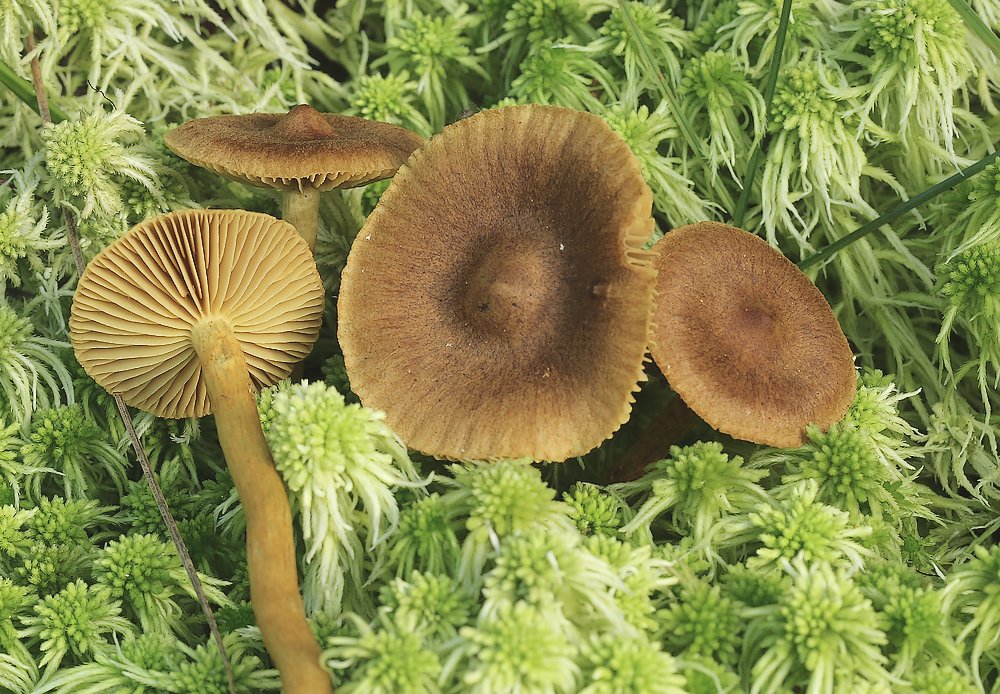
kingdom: Fungi
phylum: Basidiomycota
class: Agaricomycetes
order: Agaricales
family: Cortinariaceae
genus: Cortinarius
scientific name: Cortinarius
